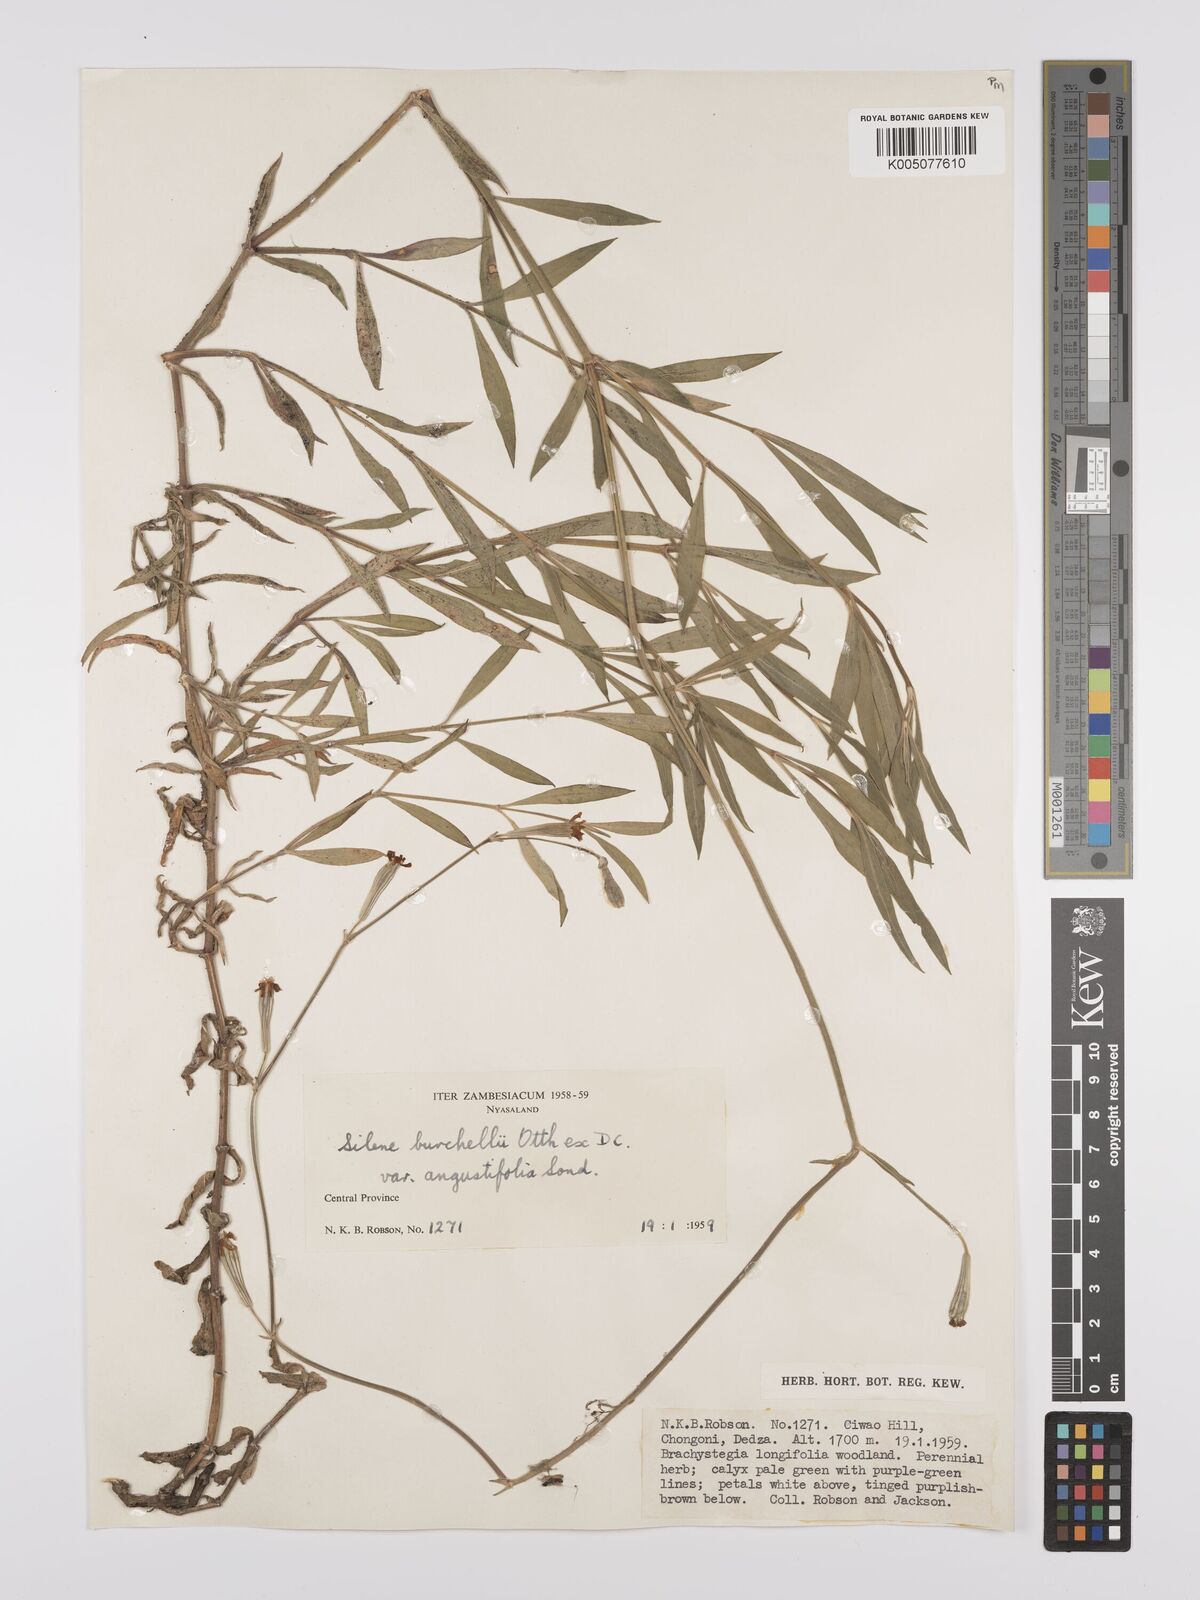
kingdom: Plantae
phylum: Tracheophyta
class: Magnoliopsida
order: Caryophyllales
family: Caryophyllaceae
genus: Silene
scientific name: Silene burchellii
